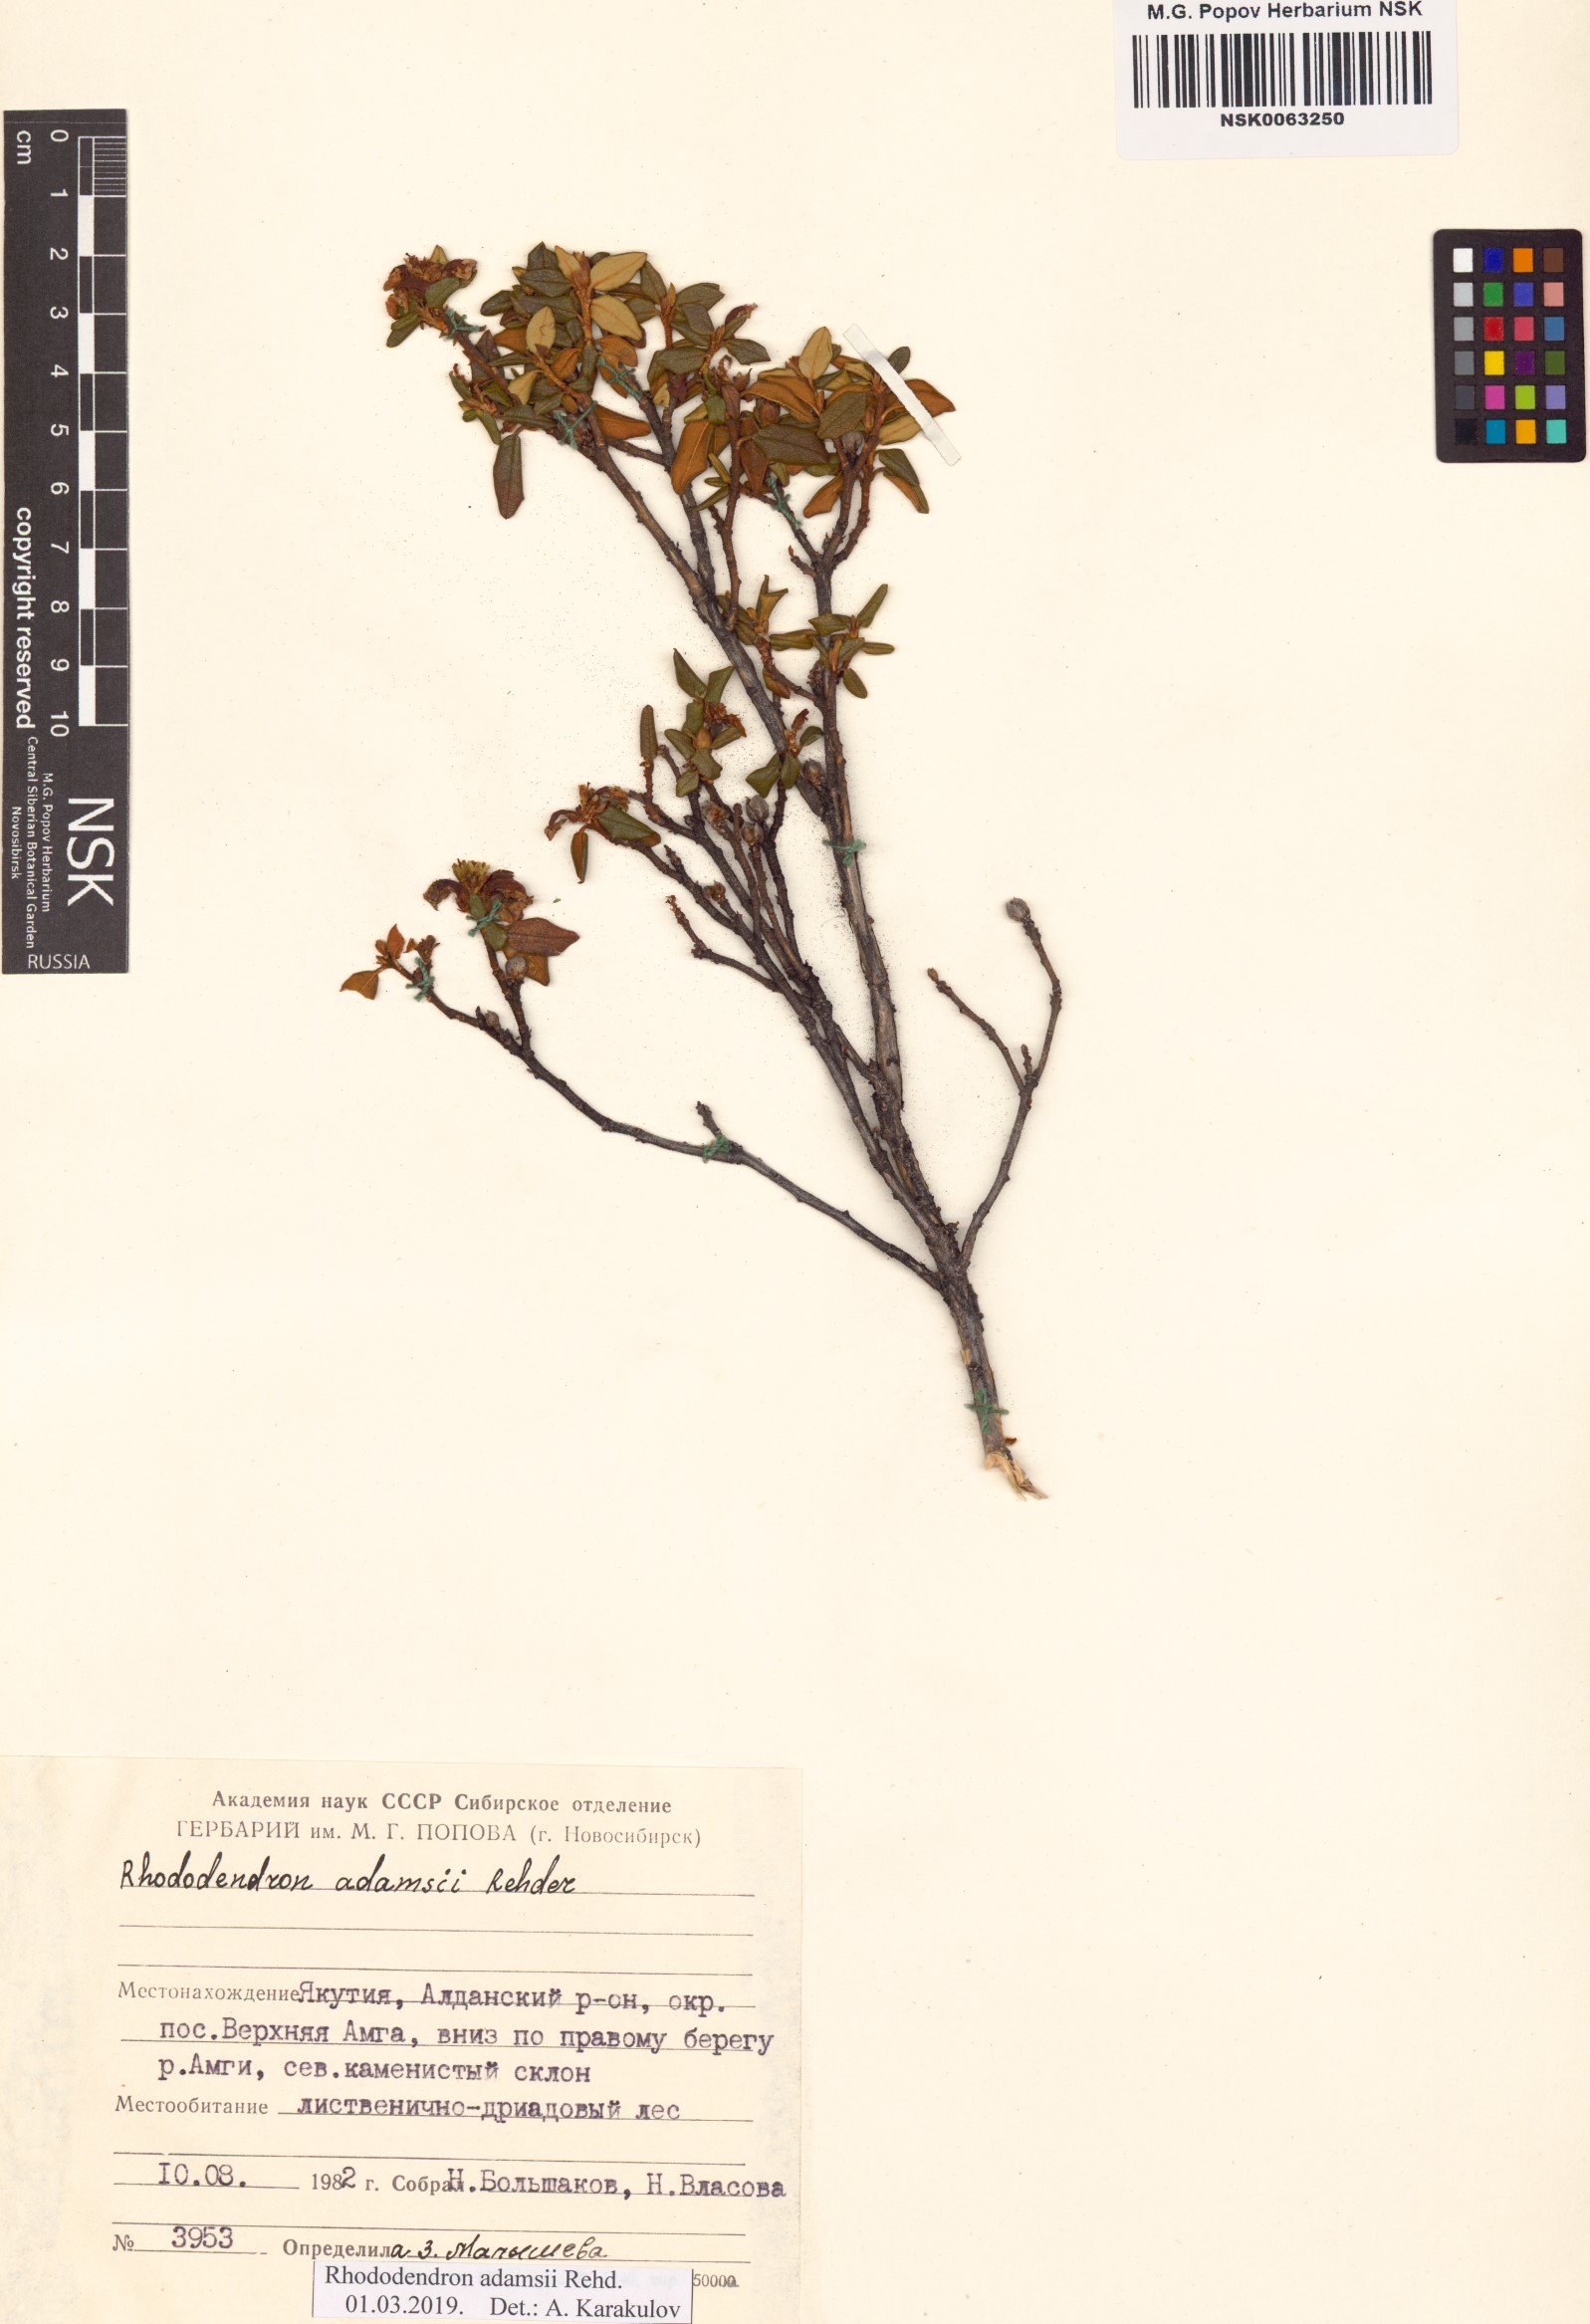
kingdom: Plantae
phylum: Tracheophyta
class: Magnoliopsida
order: Ericales
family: Ericaceae
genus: Rhododendron
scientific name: Rhododendron adamsii
